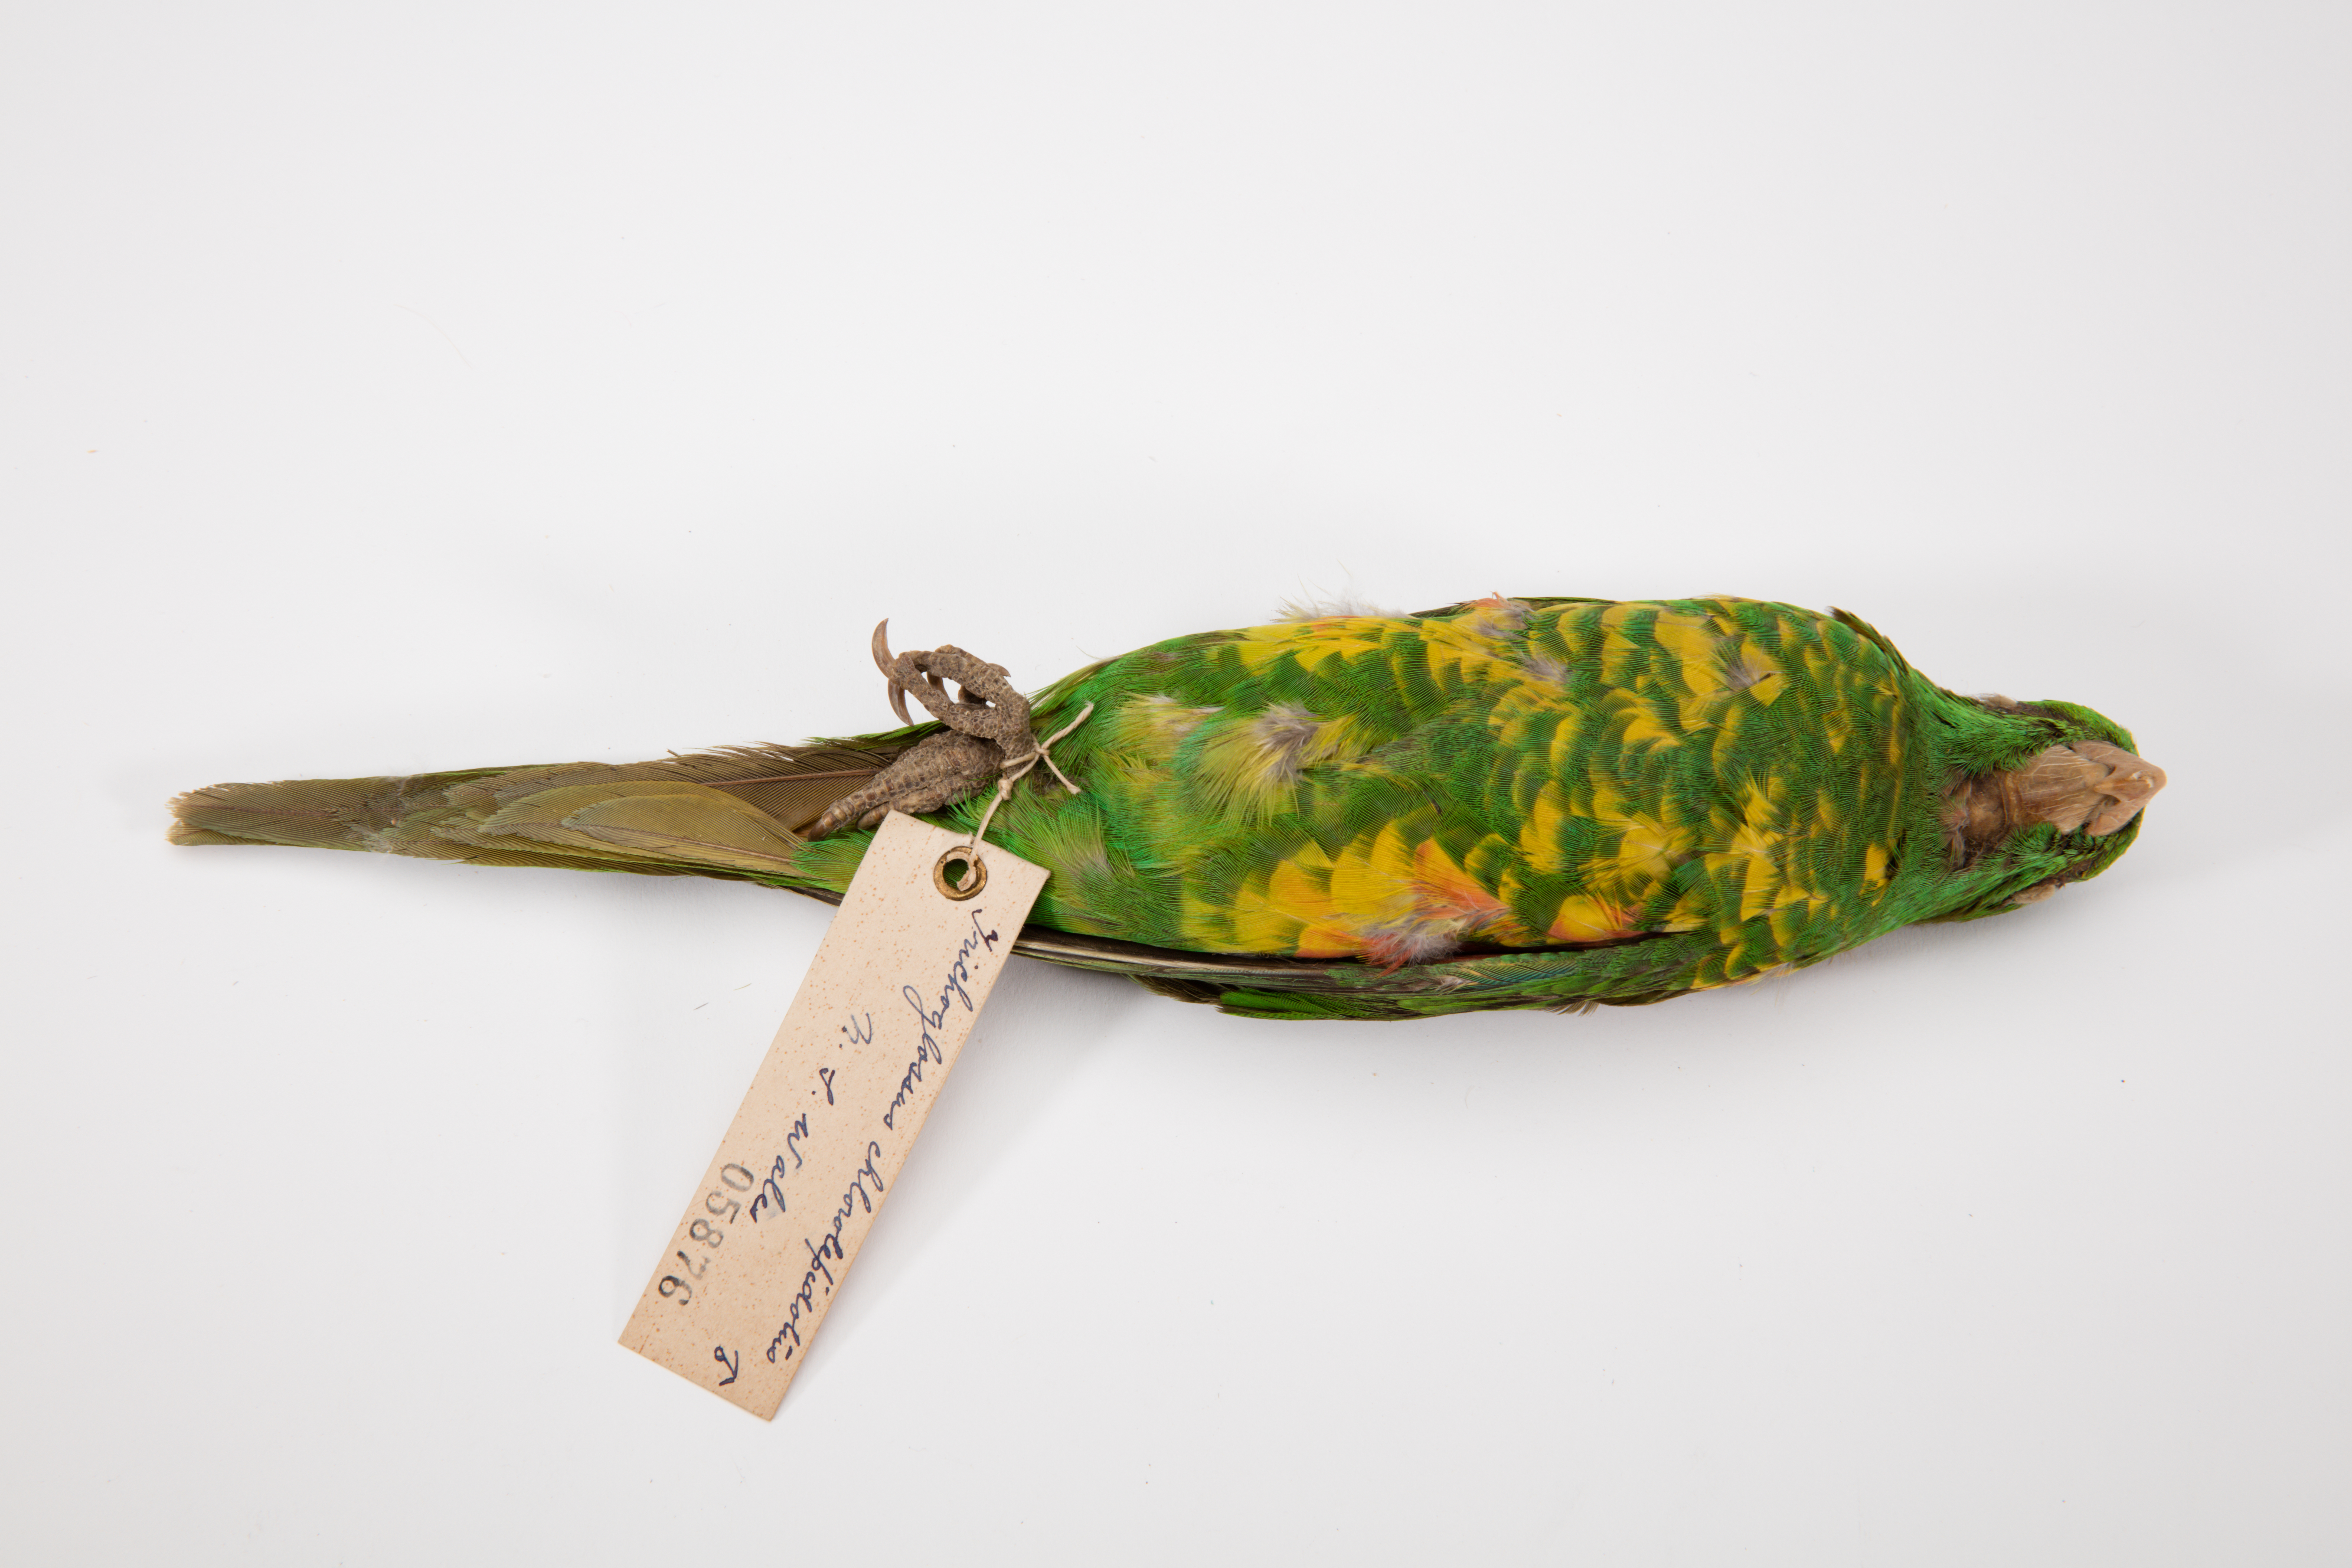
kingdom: Animalia
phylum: Chordata
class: Aves
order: Psittaciformes
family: Psittacidae
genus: Trichoglossus
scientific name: Trichoglossus chlorolepidotus
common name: Scaly-breasted lorikeet
